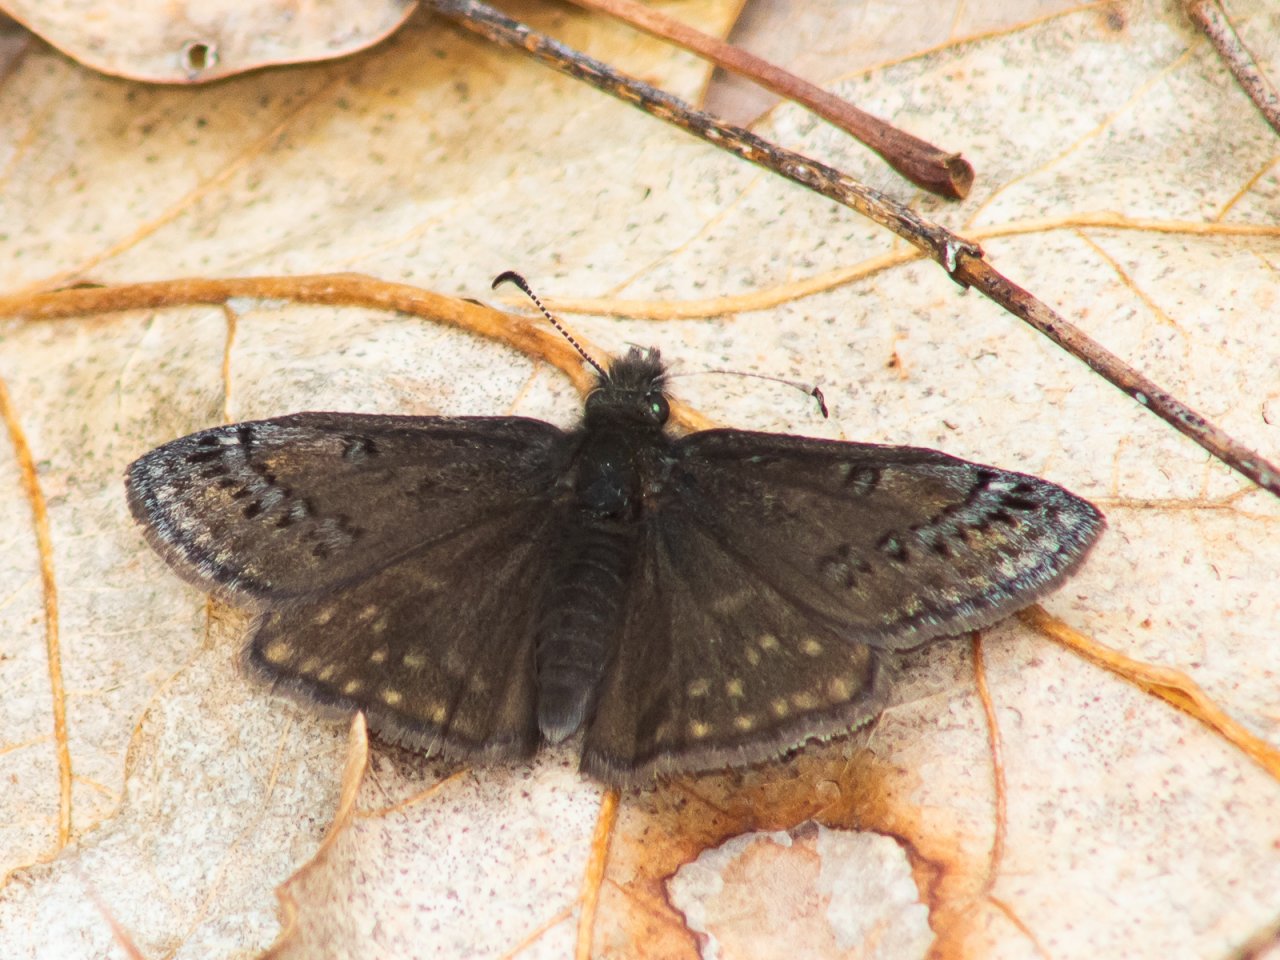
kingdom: Animalia
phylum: Arthropoda
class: Insecta
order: Lepidoptera
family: Hesperiidae
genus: Erynnis
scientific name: Erynnis
